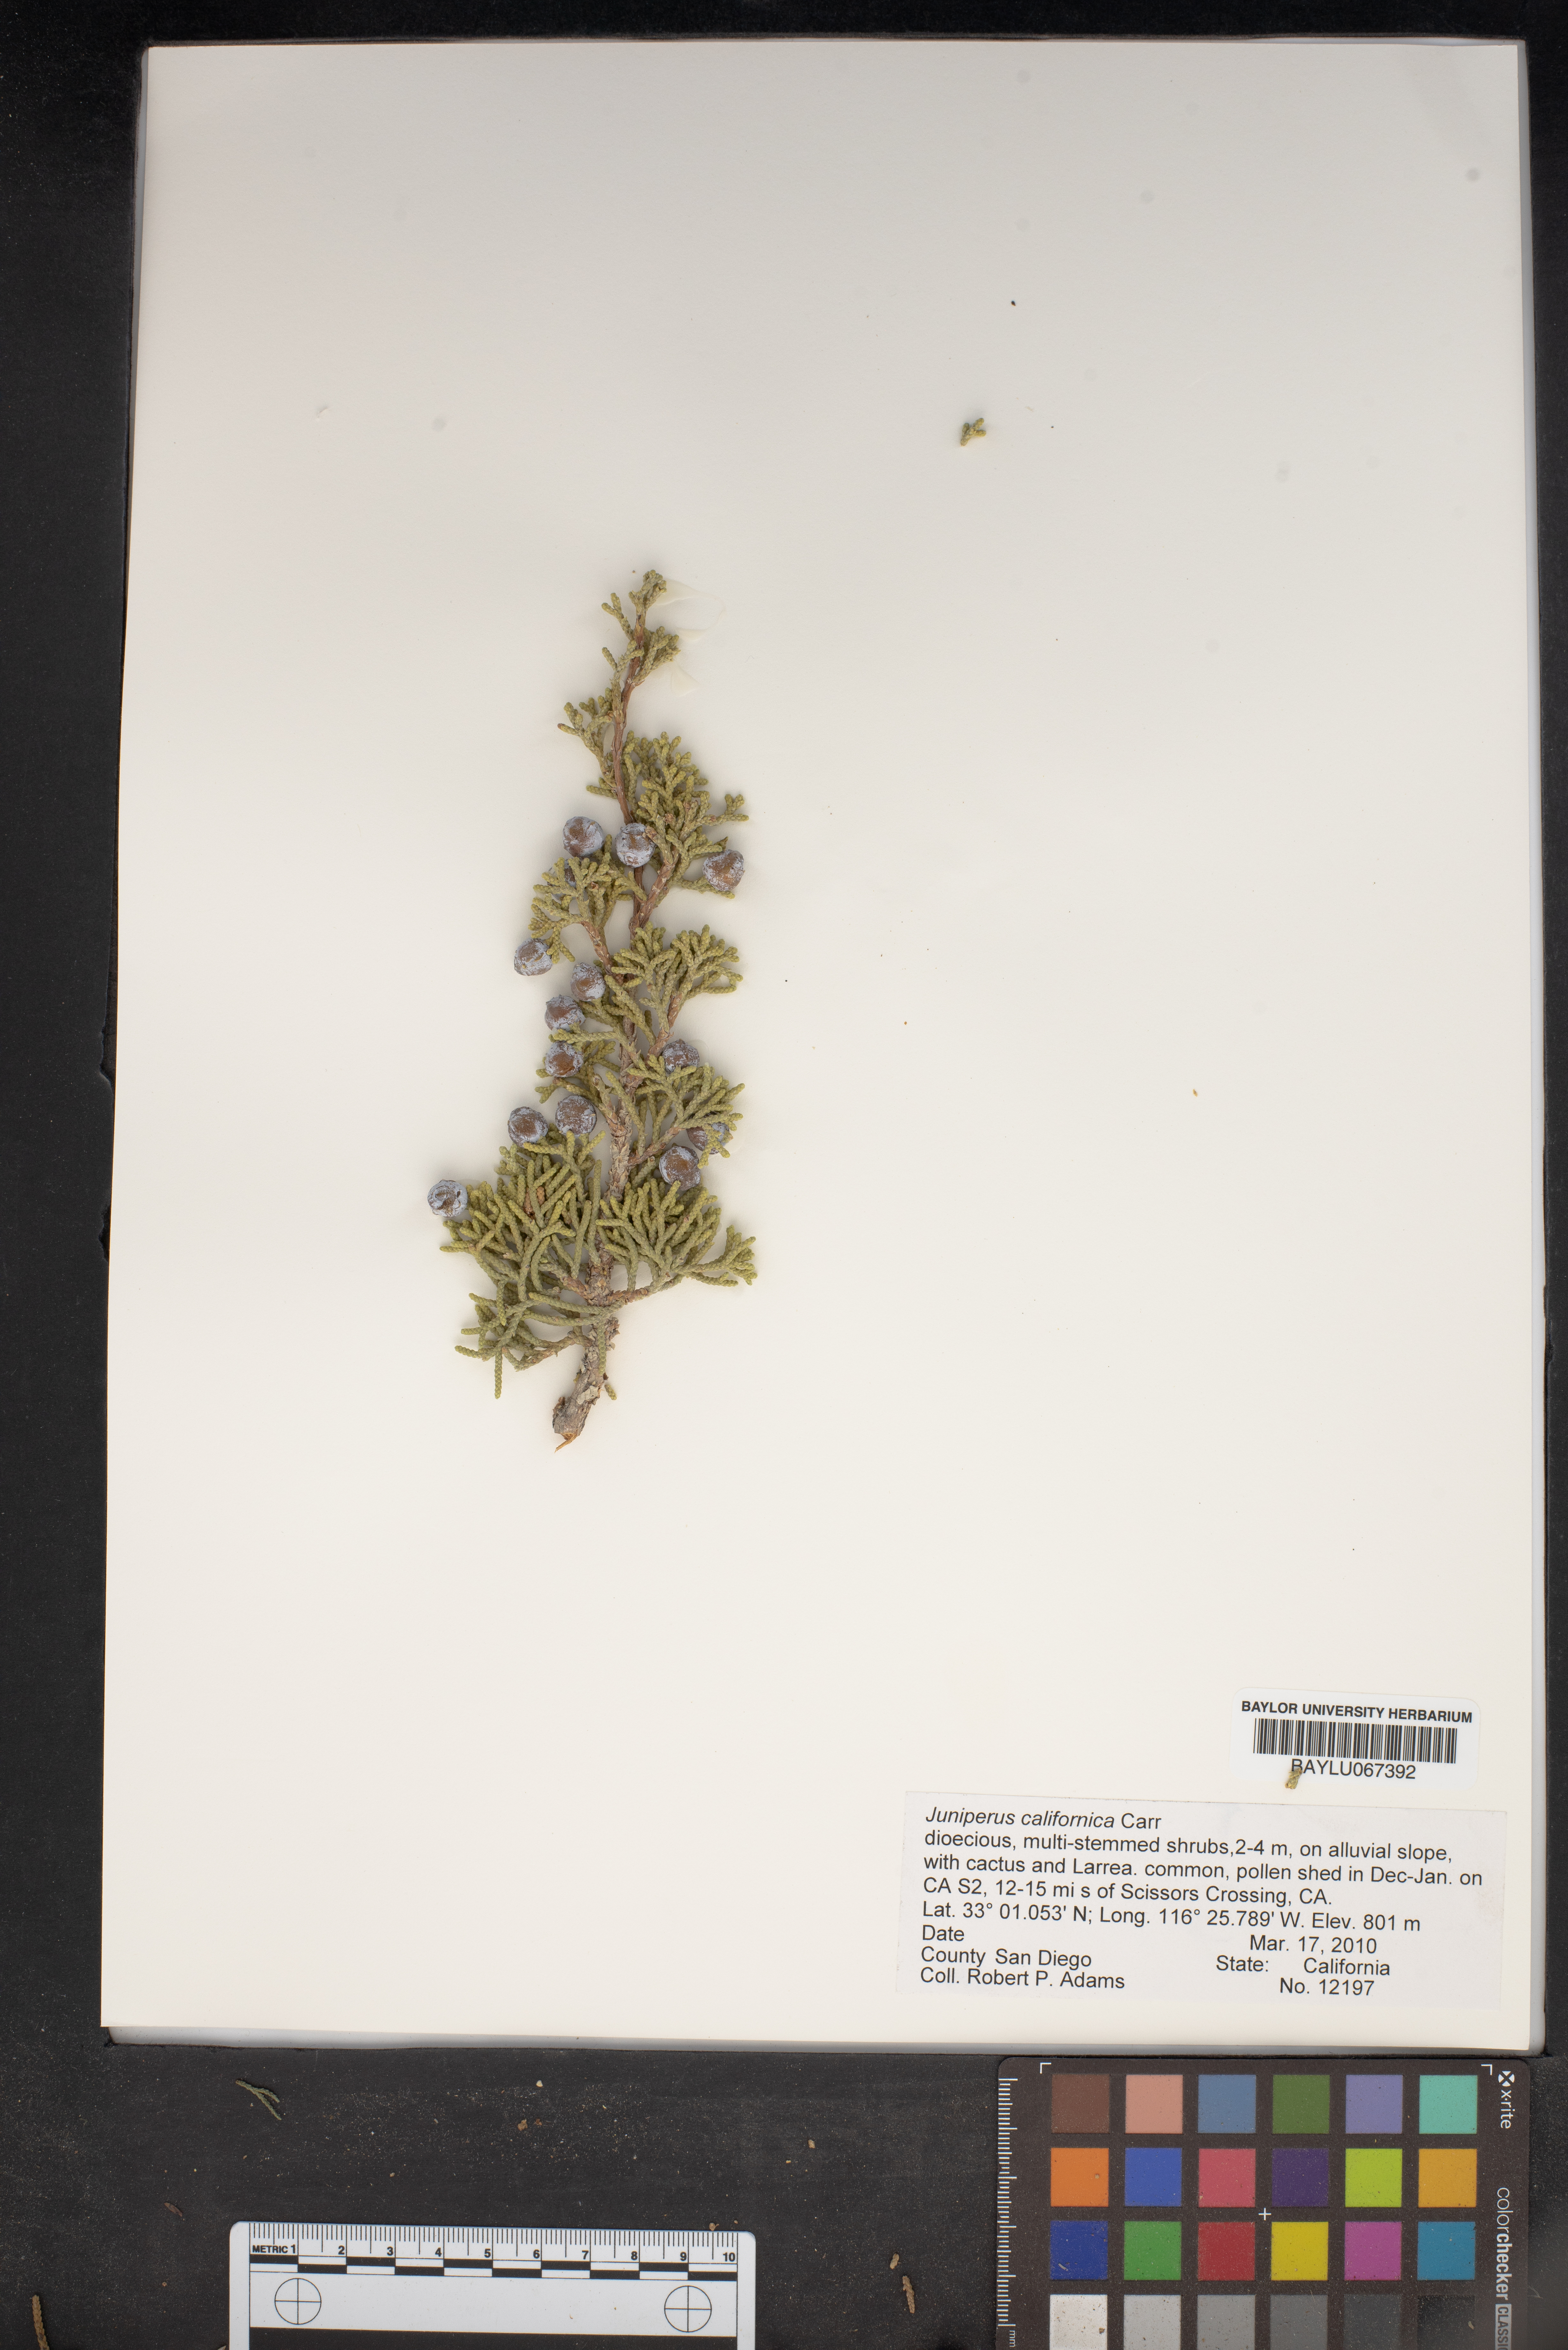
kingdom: Plantae
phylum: Tracheophyta
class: Pinopsida
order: Pinales
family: Cupressaceae
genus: Juniperus
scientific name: Juniperus californica
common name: California juniper
